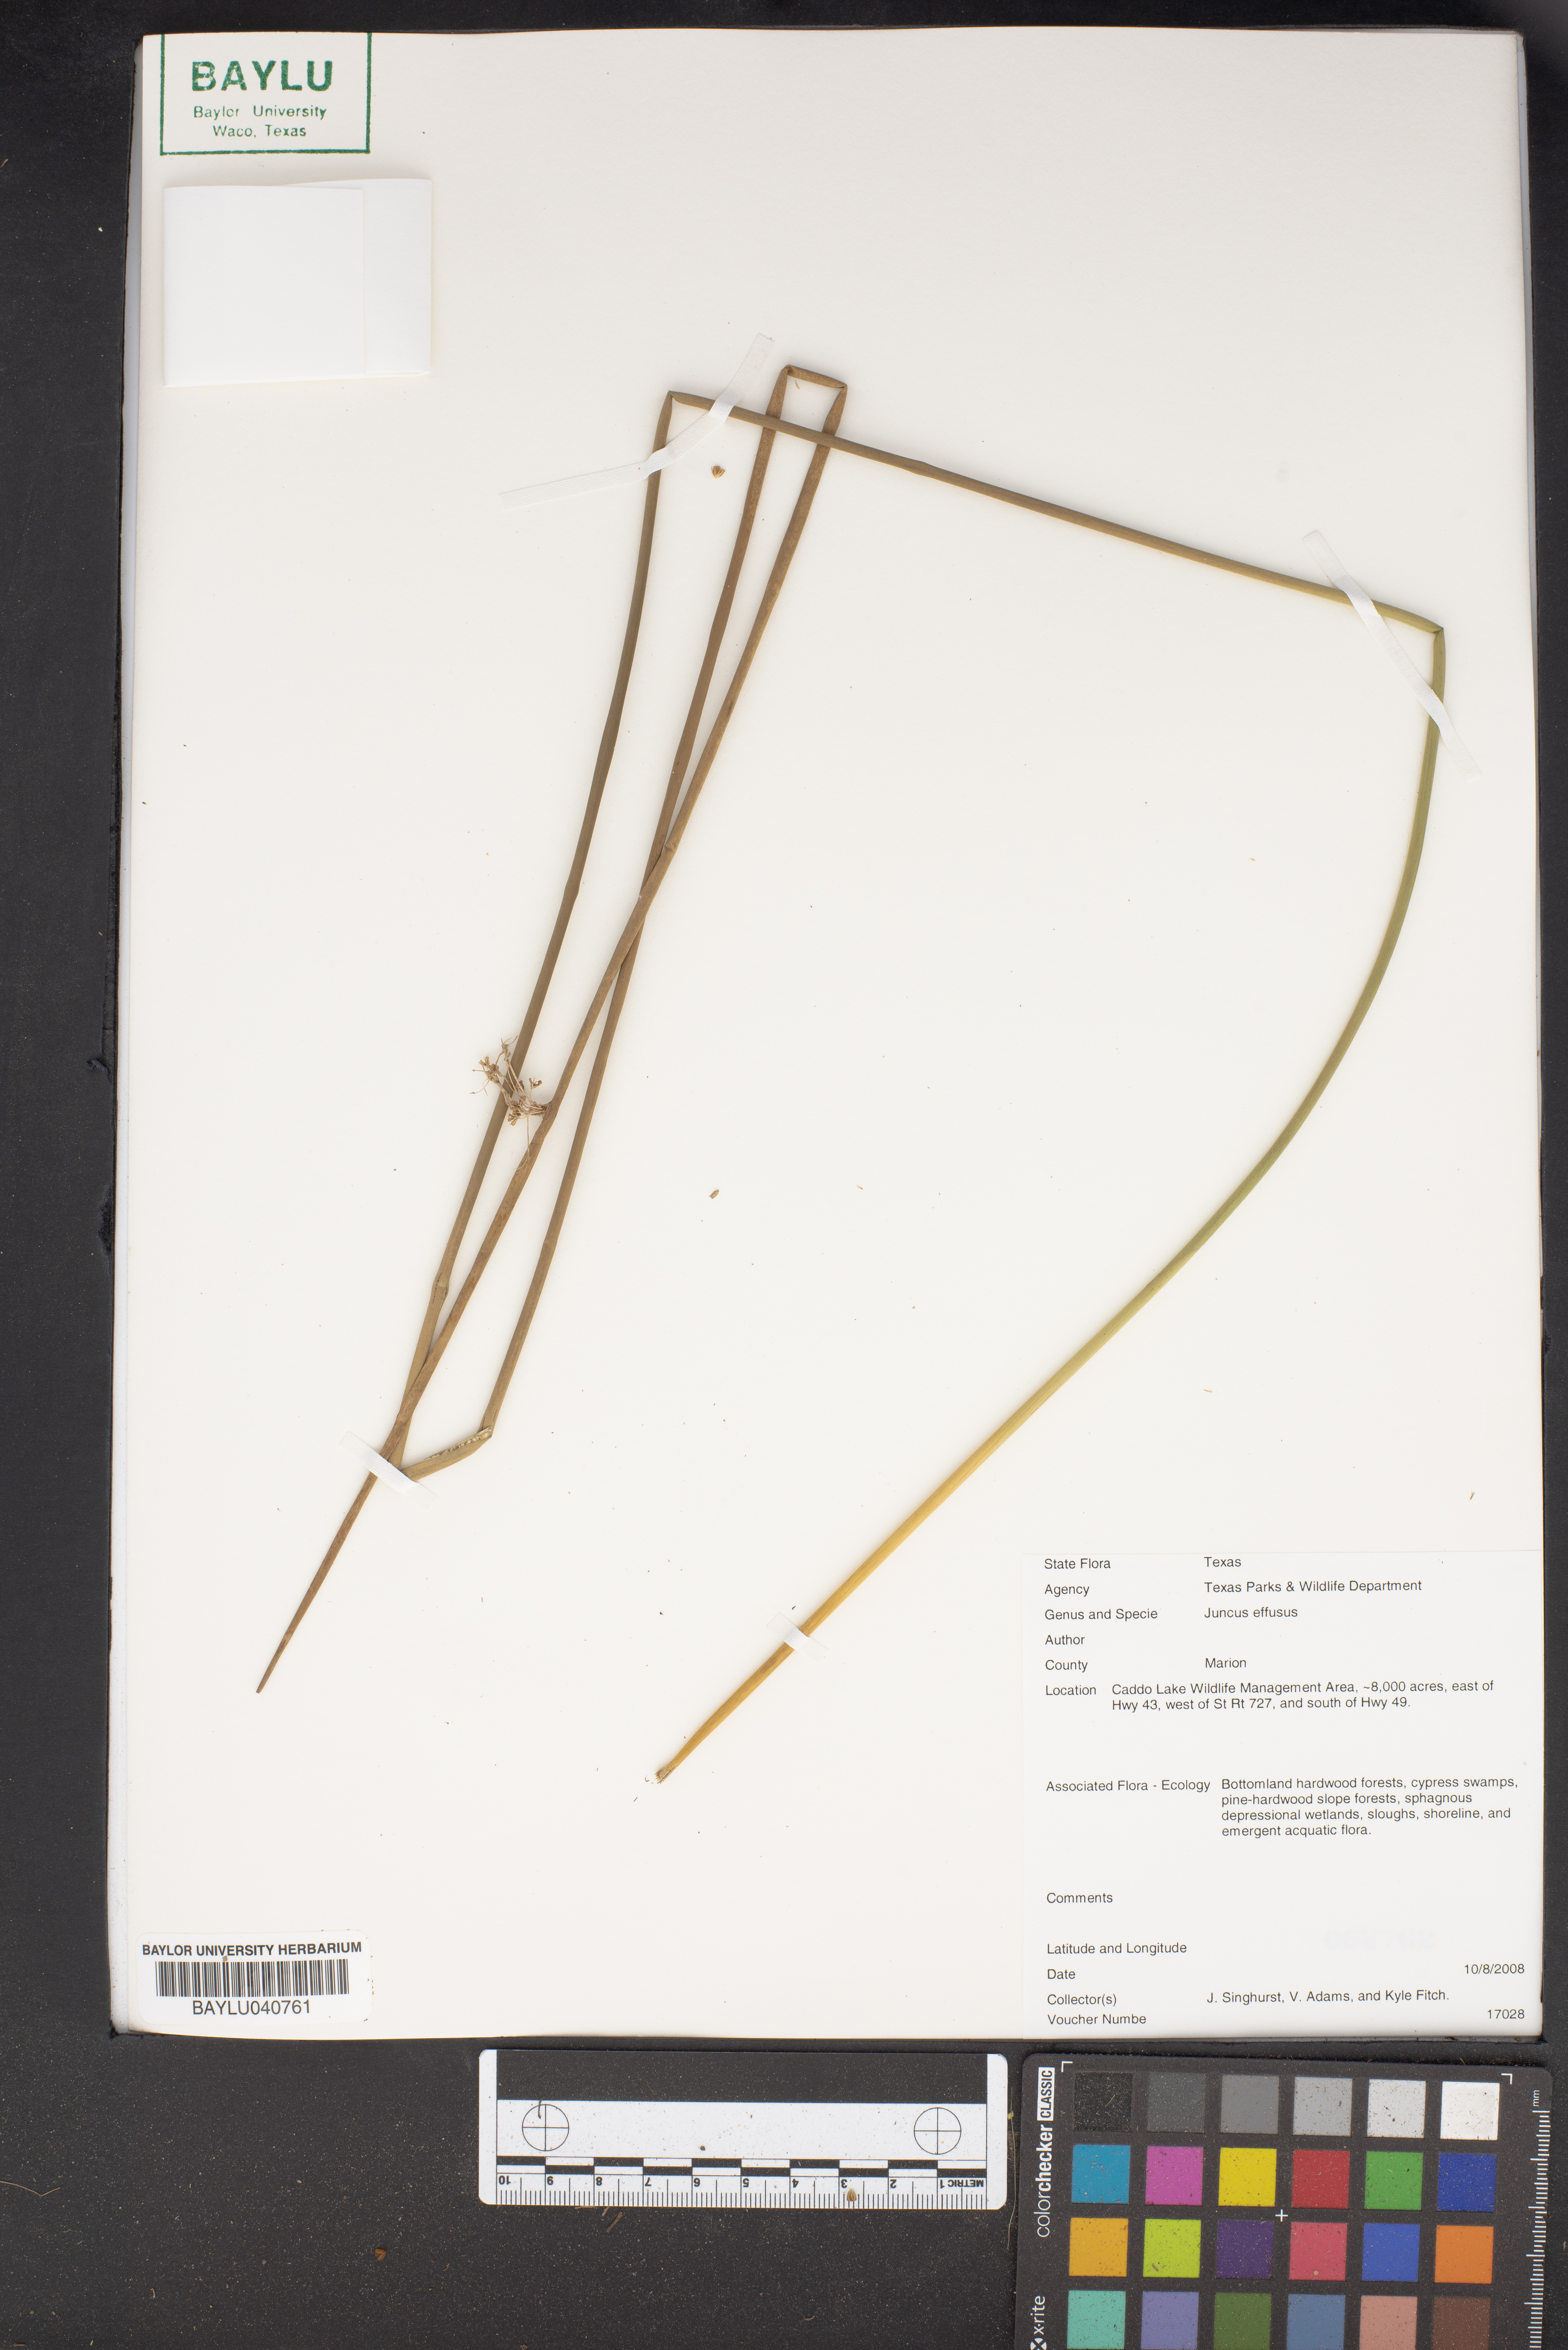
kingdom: Plantae
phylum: Tracheophyta
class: Liliopsida
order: Poales
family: Juncaceae
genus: Juncus
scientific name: Juncus effusus
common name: Soft rush
